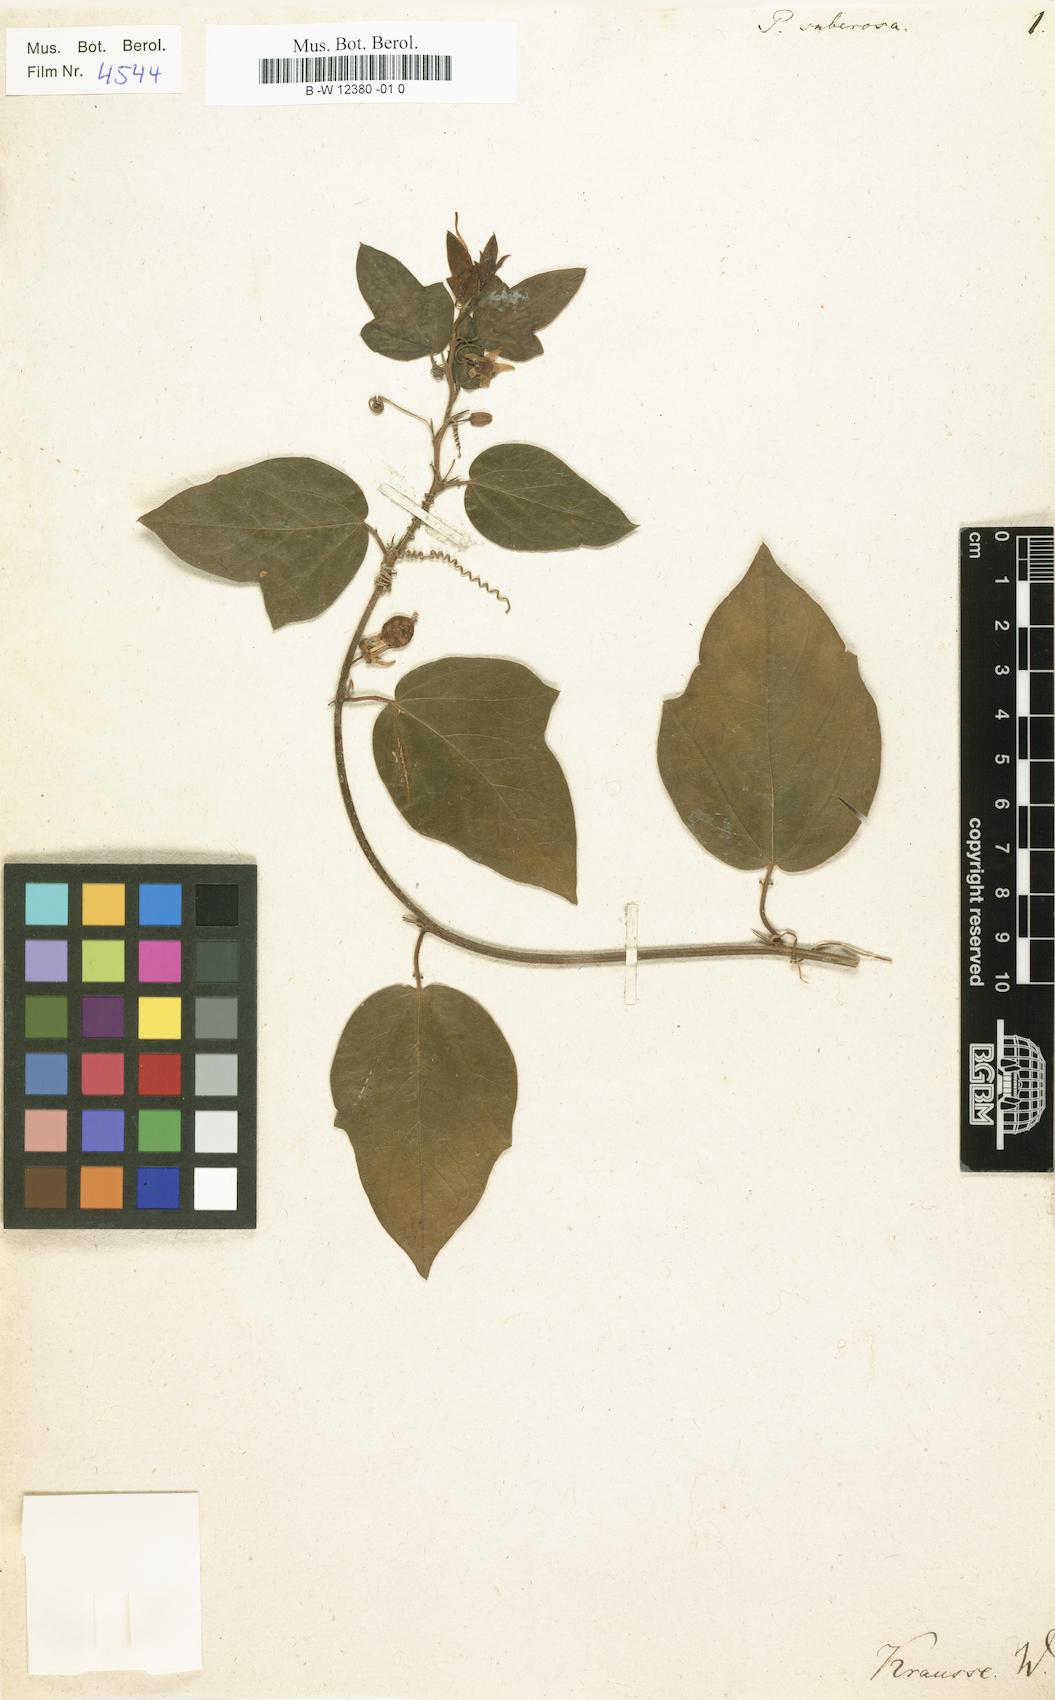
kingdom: Plantae
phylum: Tracheophyta
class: Magnoliopsida
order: Malpighiales
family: Passifloraceae
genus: Passiflora
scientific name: Passiflora suberosa
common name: Wild passionfruit
